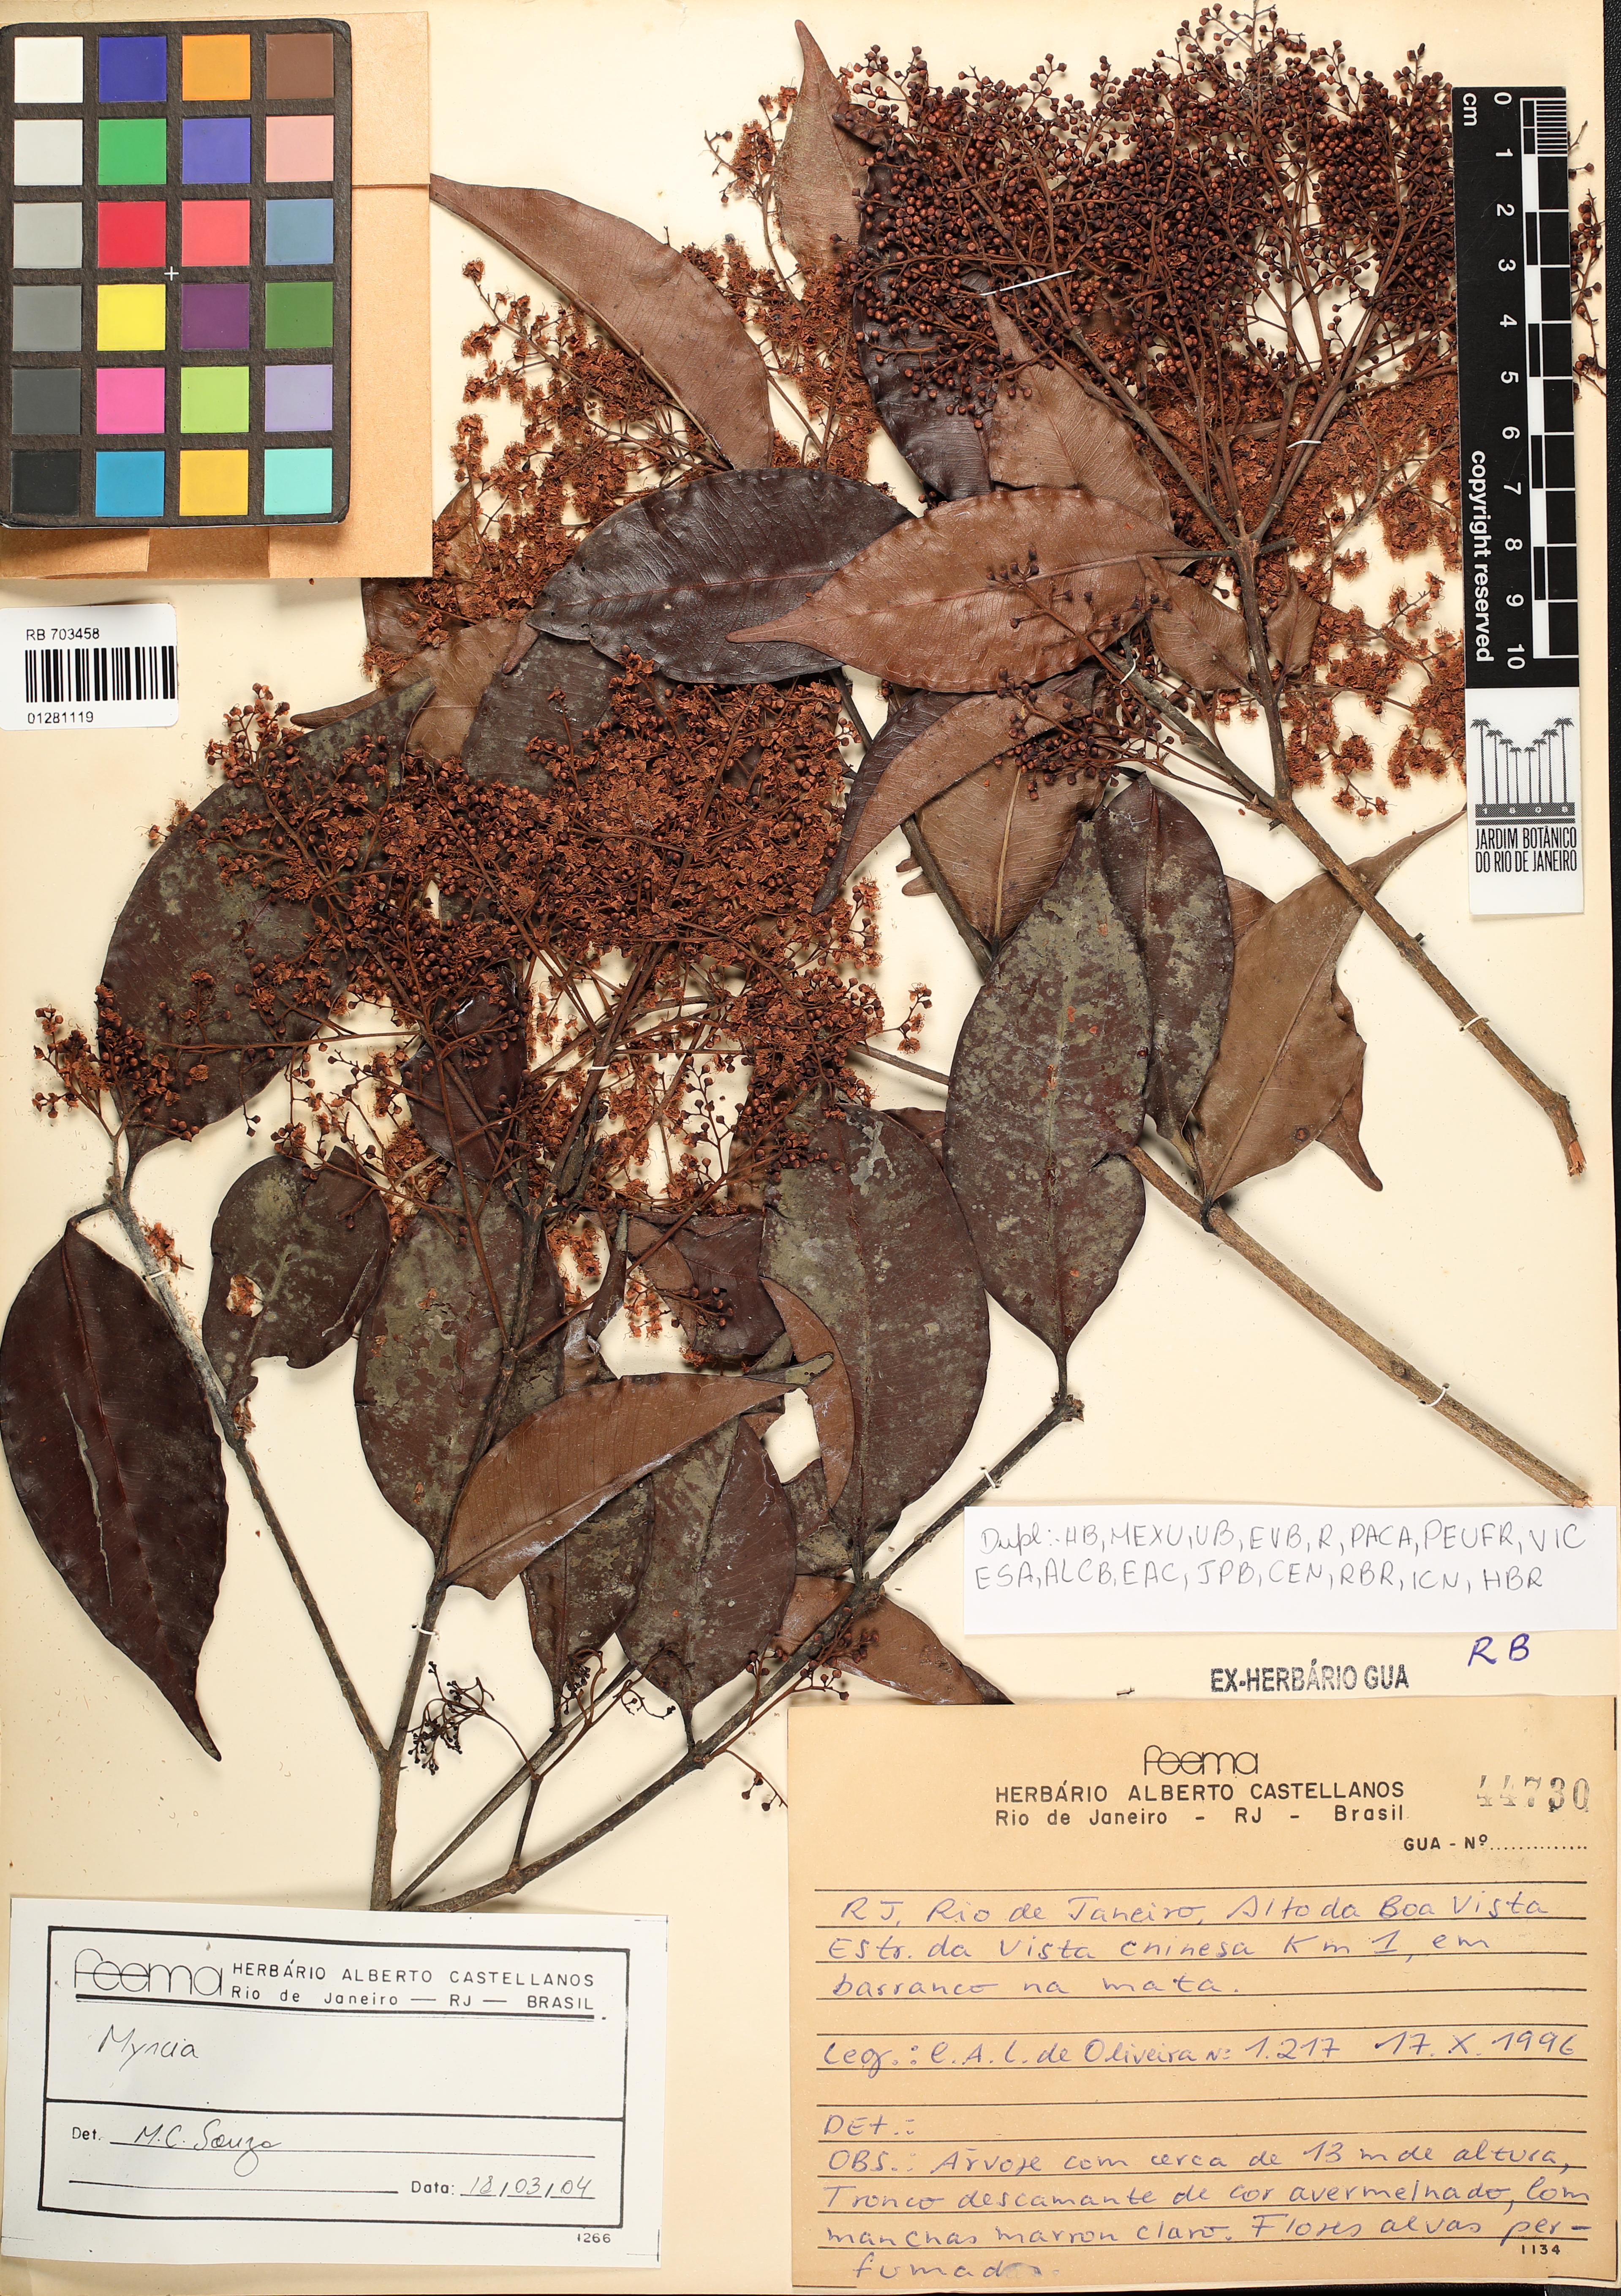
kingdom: Plantae
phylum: Tracheophyta
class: Magnoliopsida
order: Myrtales
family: Myrtaceae
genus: Myrcia
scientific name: Myrcia
